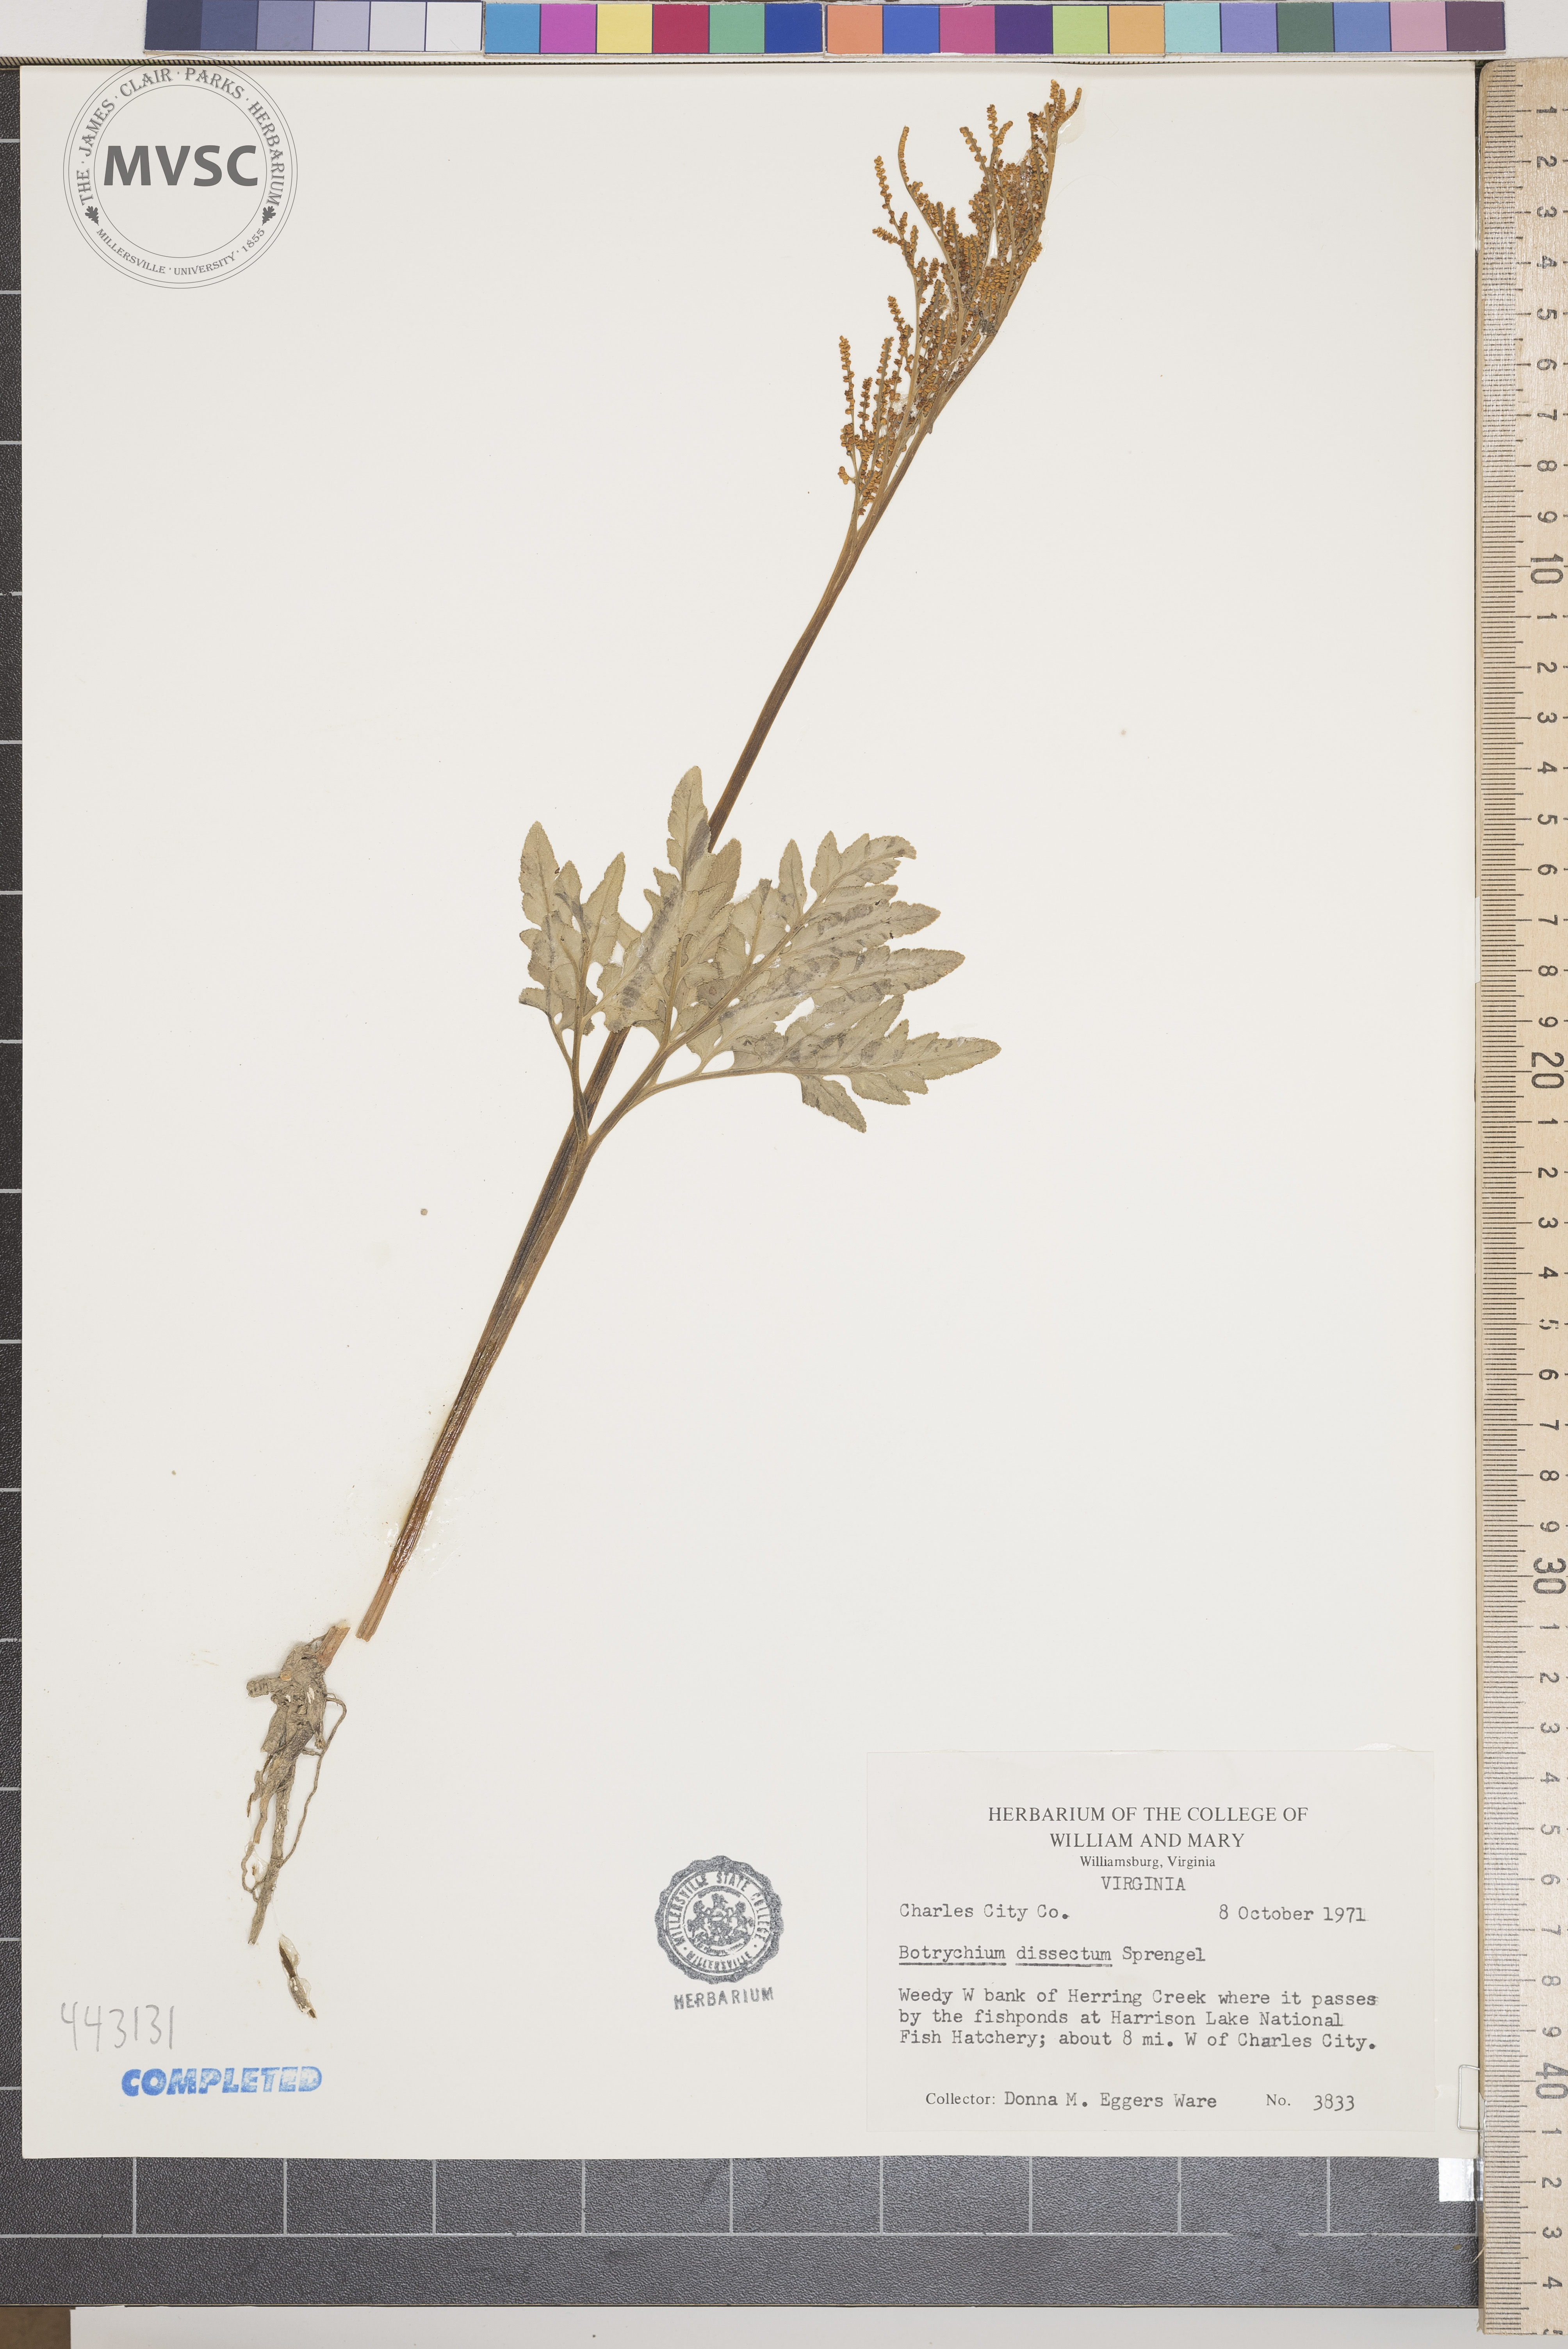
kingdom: Plantae
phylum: Tracheophyta
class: Polypodiopsida
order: Ophioglossales
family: Ophioglossaceae
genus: Sceptridium
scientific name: Sceptridium dissectum
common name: Cut-leaved grapefern
